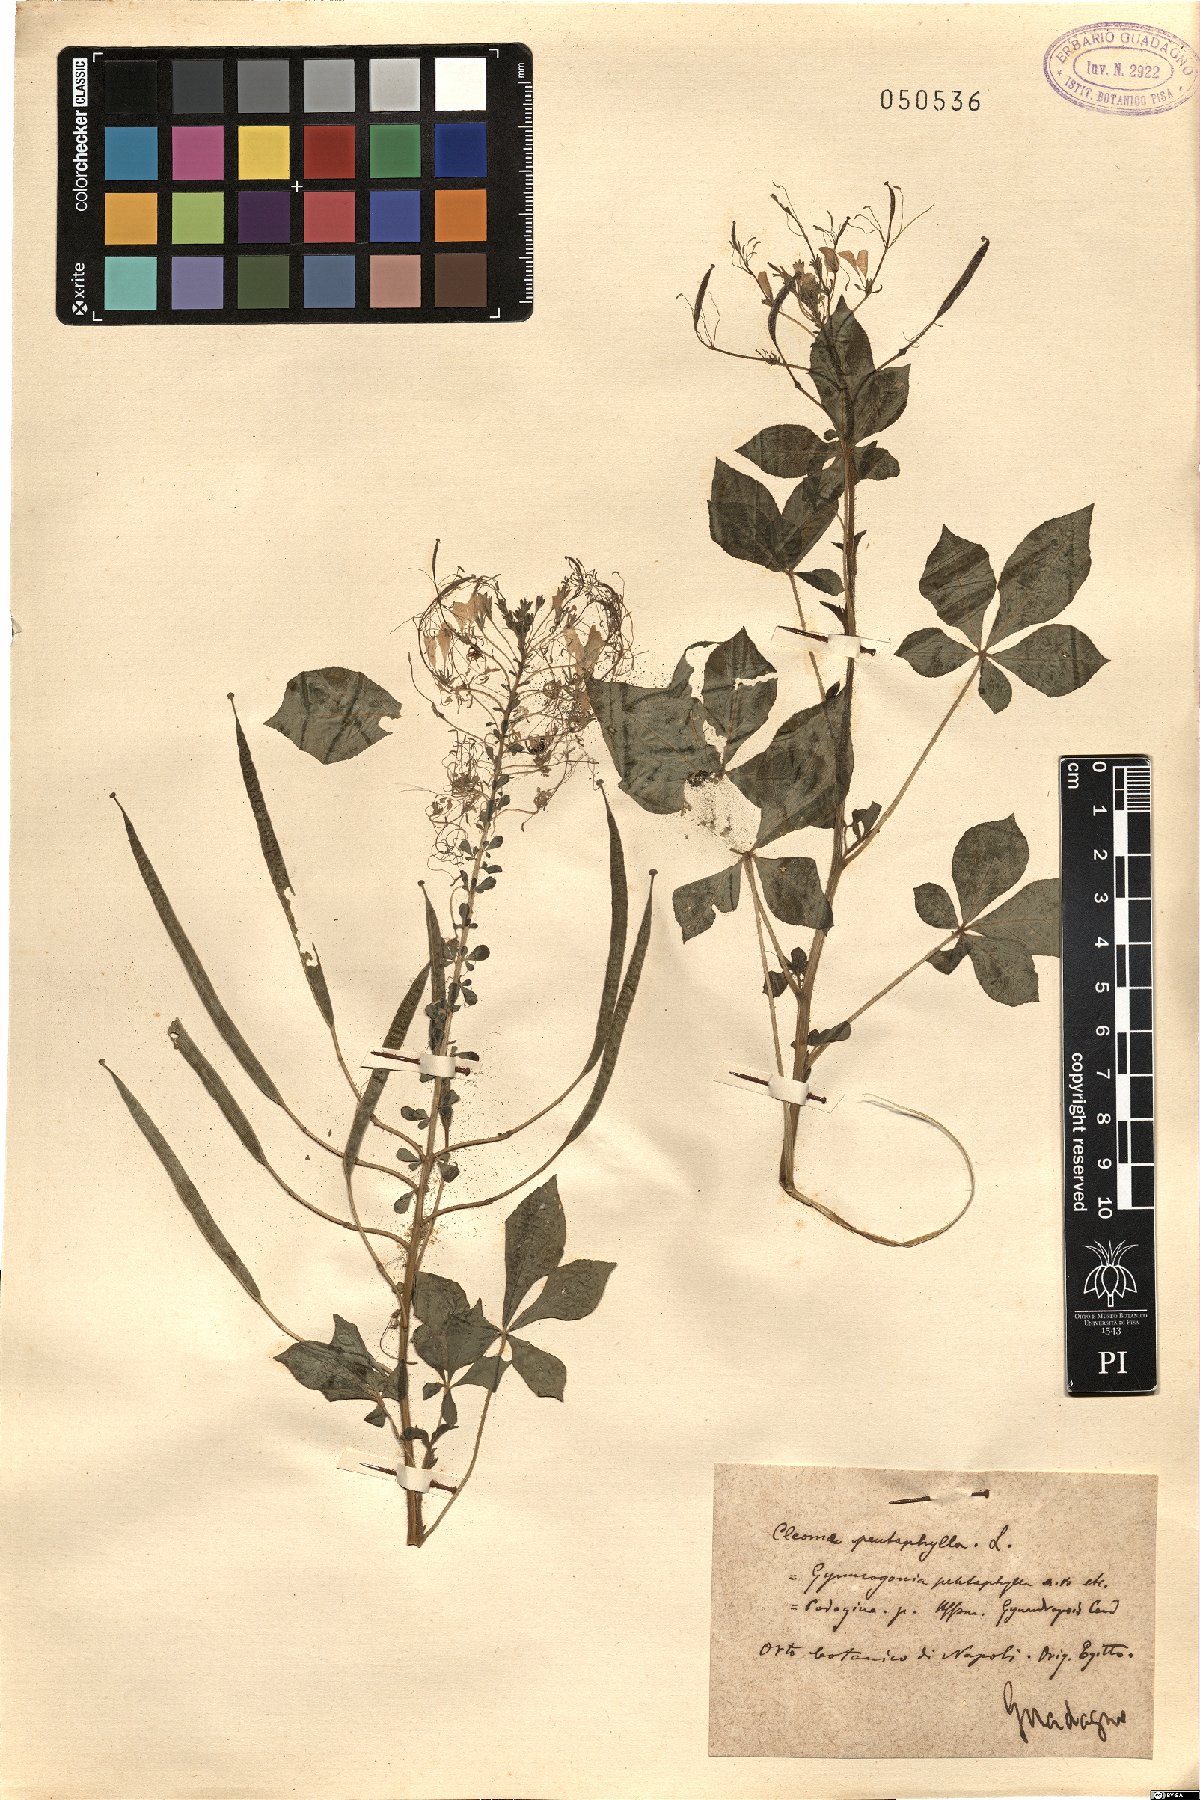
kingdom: Plantae
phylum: Tracheophyta
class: Magnoliopsida
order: Brassicales
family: Cleomaceae
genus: Gynandropsis
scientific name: Gynandropsis gynandra
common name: Spiderwisp
